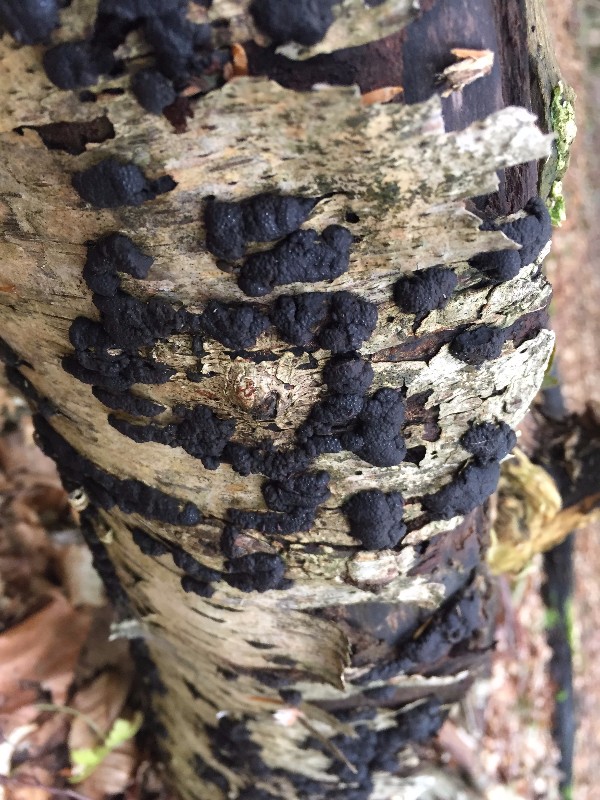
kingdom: Fungi
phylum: Ascomycota
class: Sordariomycetes
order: Xylariales
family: Hypoxylaceae
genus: Jackrogersella
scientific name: Jackrogersella multiformis
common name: foranderlig kulbær
